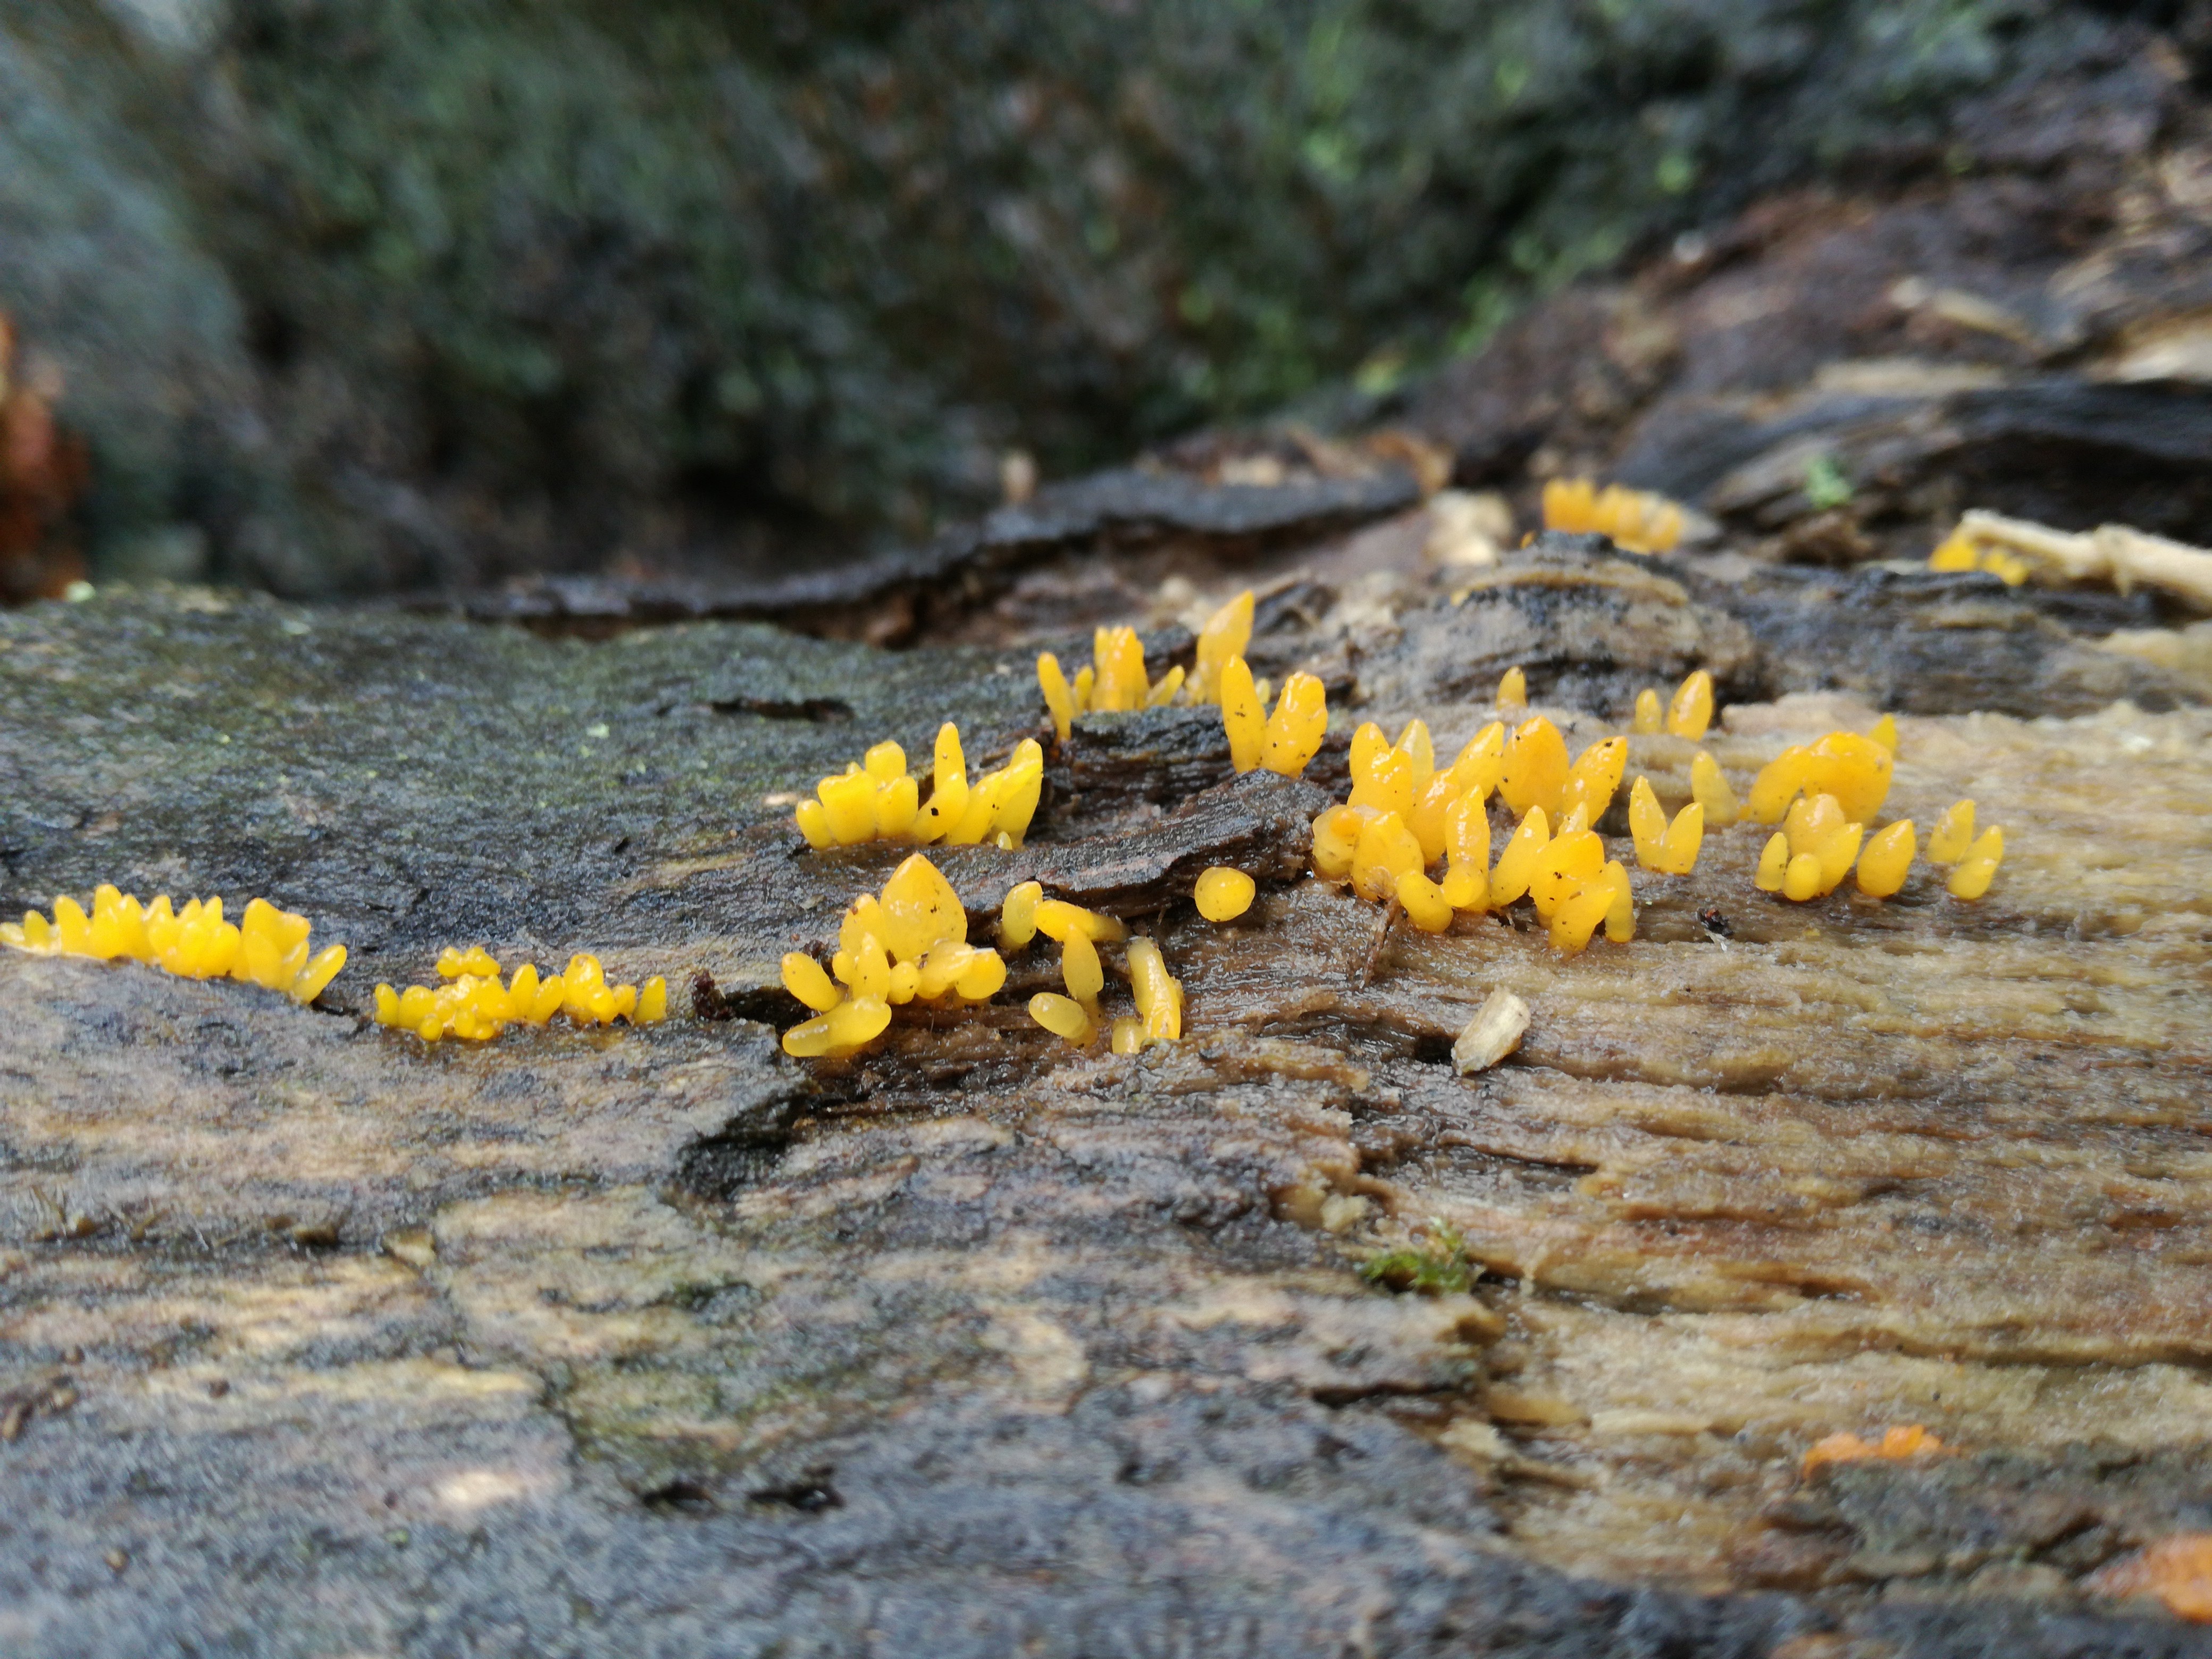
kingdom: Fungi
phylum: Basidiomycota
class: Dacrymycetes
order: Dacrymycetales
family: Dacrymycetaceae
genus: Calocera
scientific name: Calocera cornea
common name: liden guldgaffel
